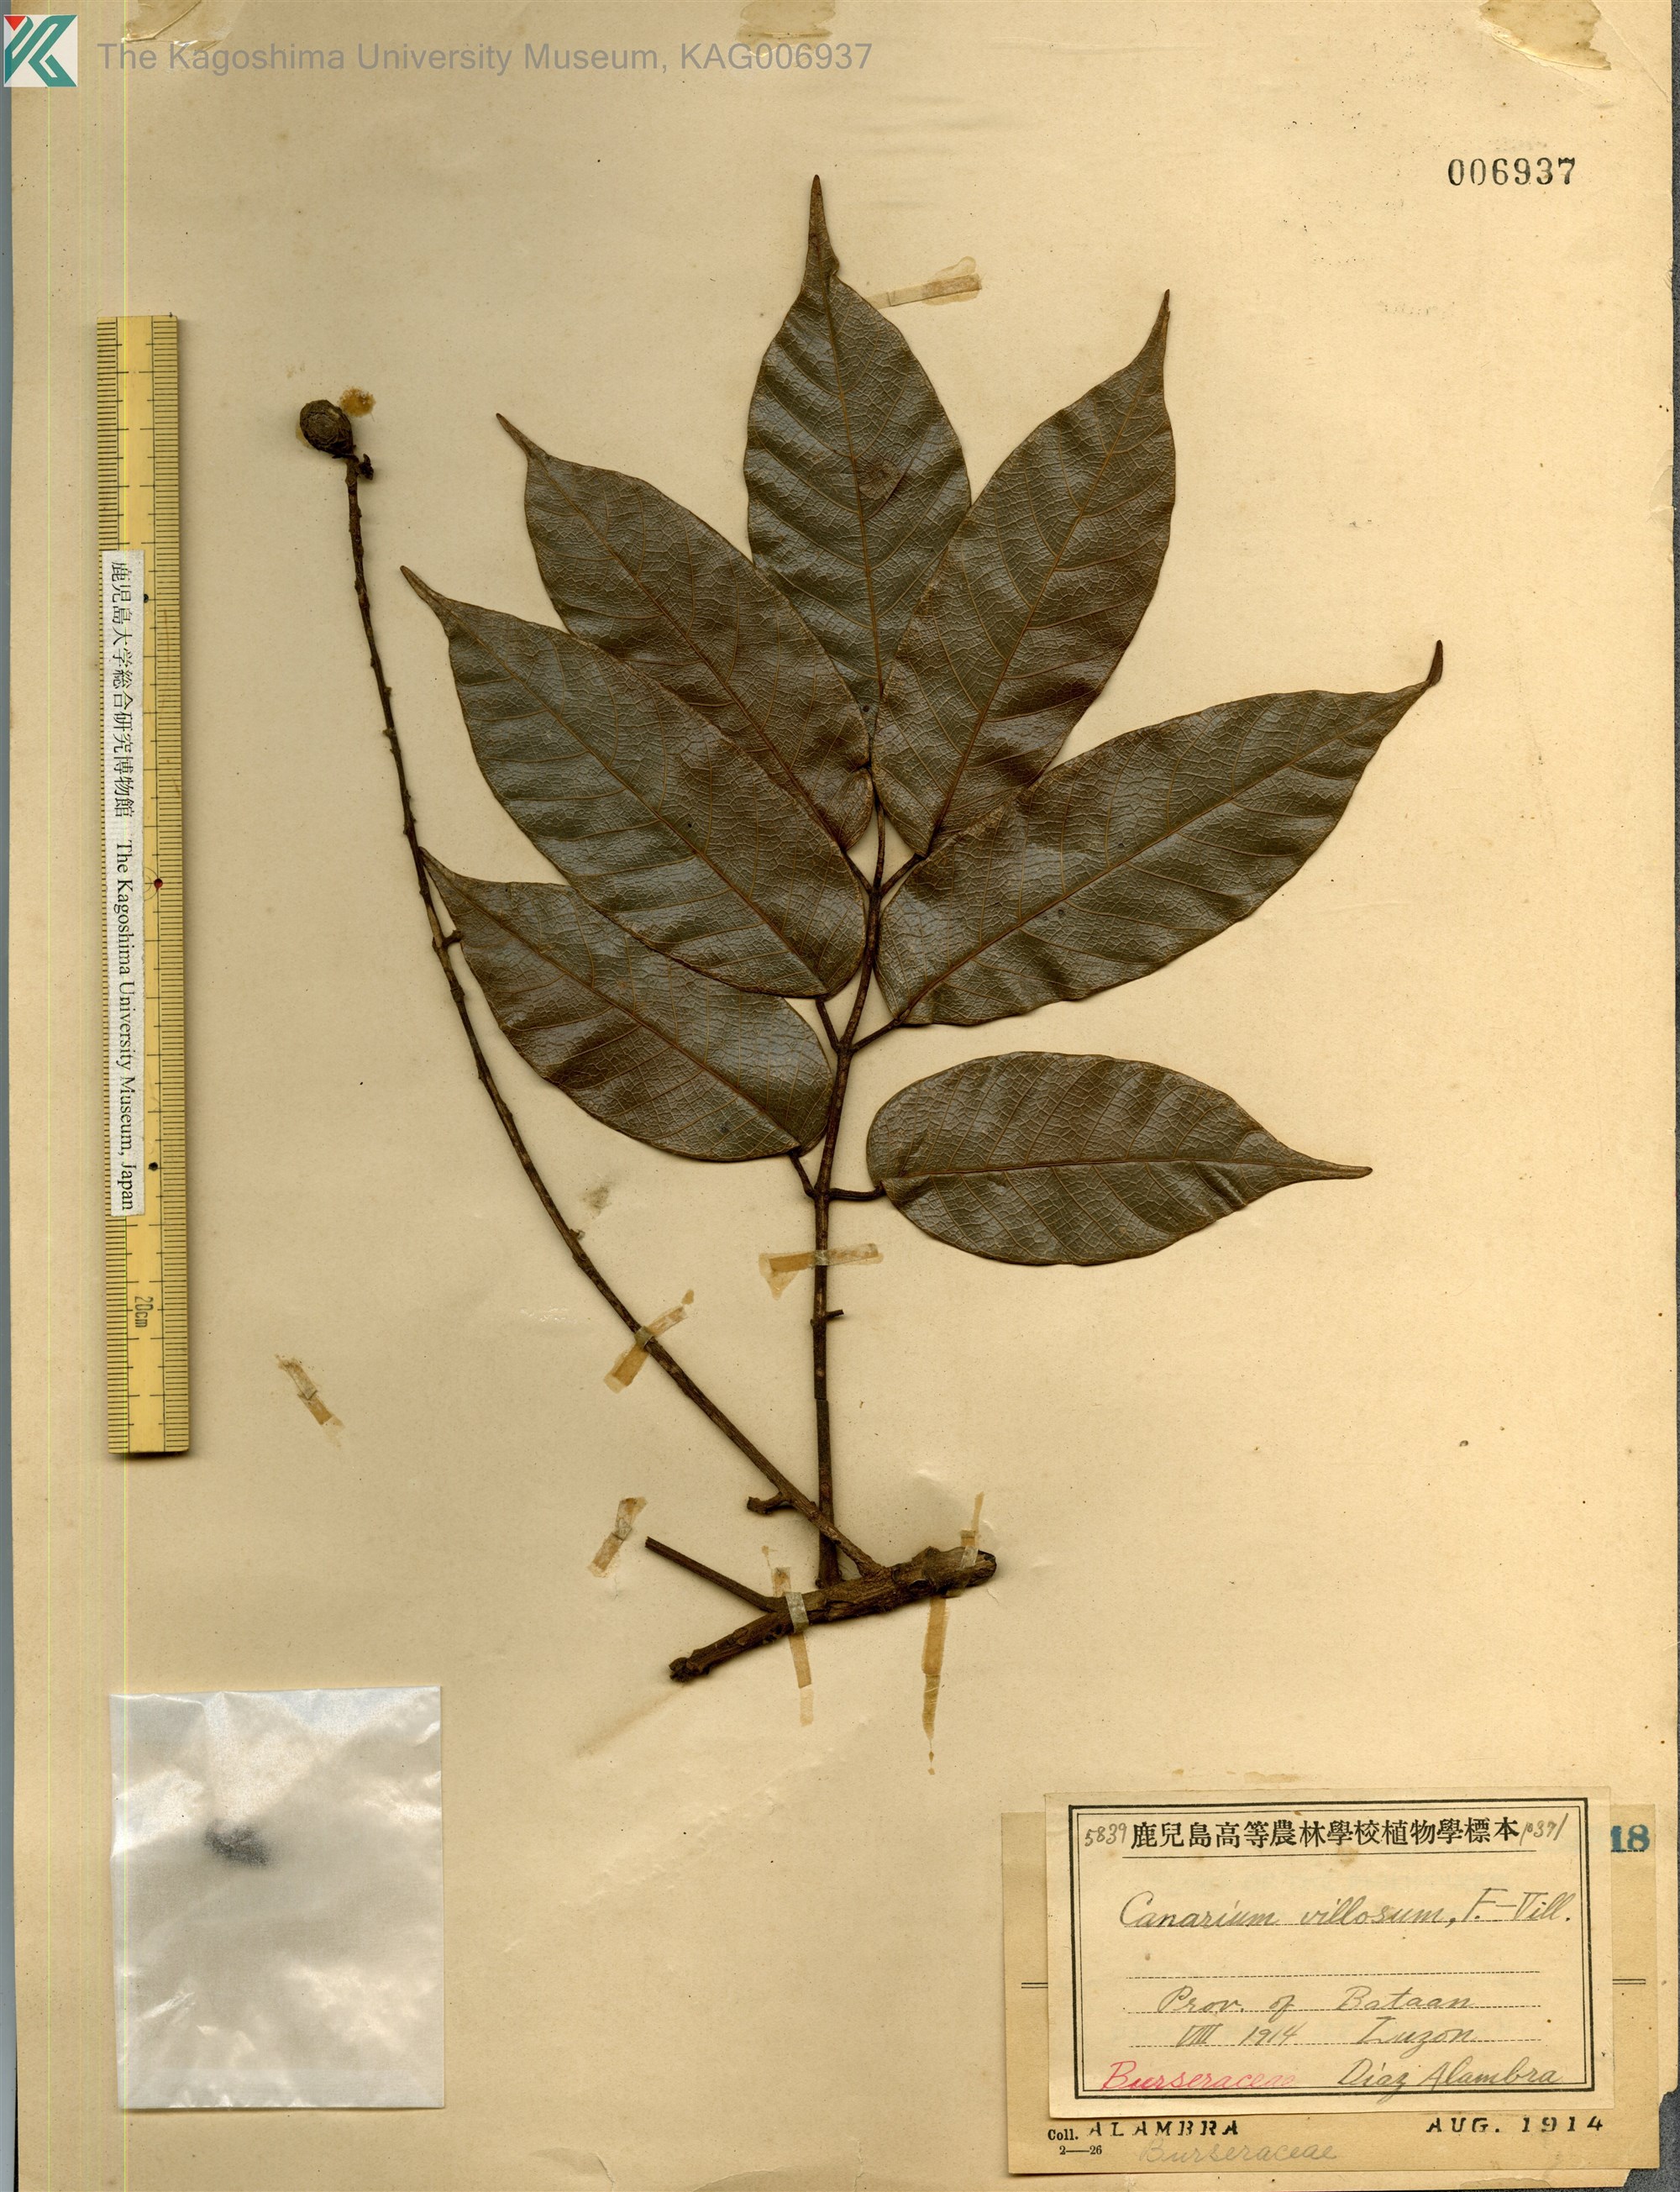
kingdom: Plantae
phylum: Tracheophyta
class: Magnoliopsida
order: Sapindales
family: Burseraceae
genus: Canarium
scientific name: Canarium asperum
